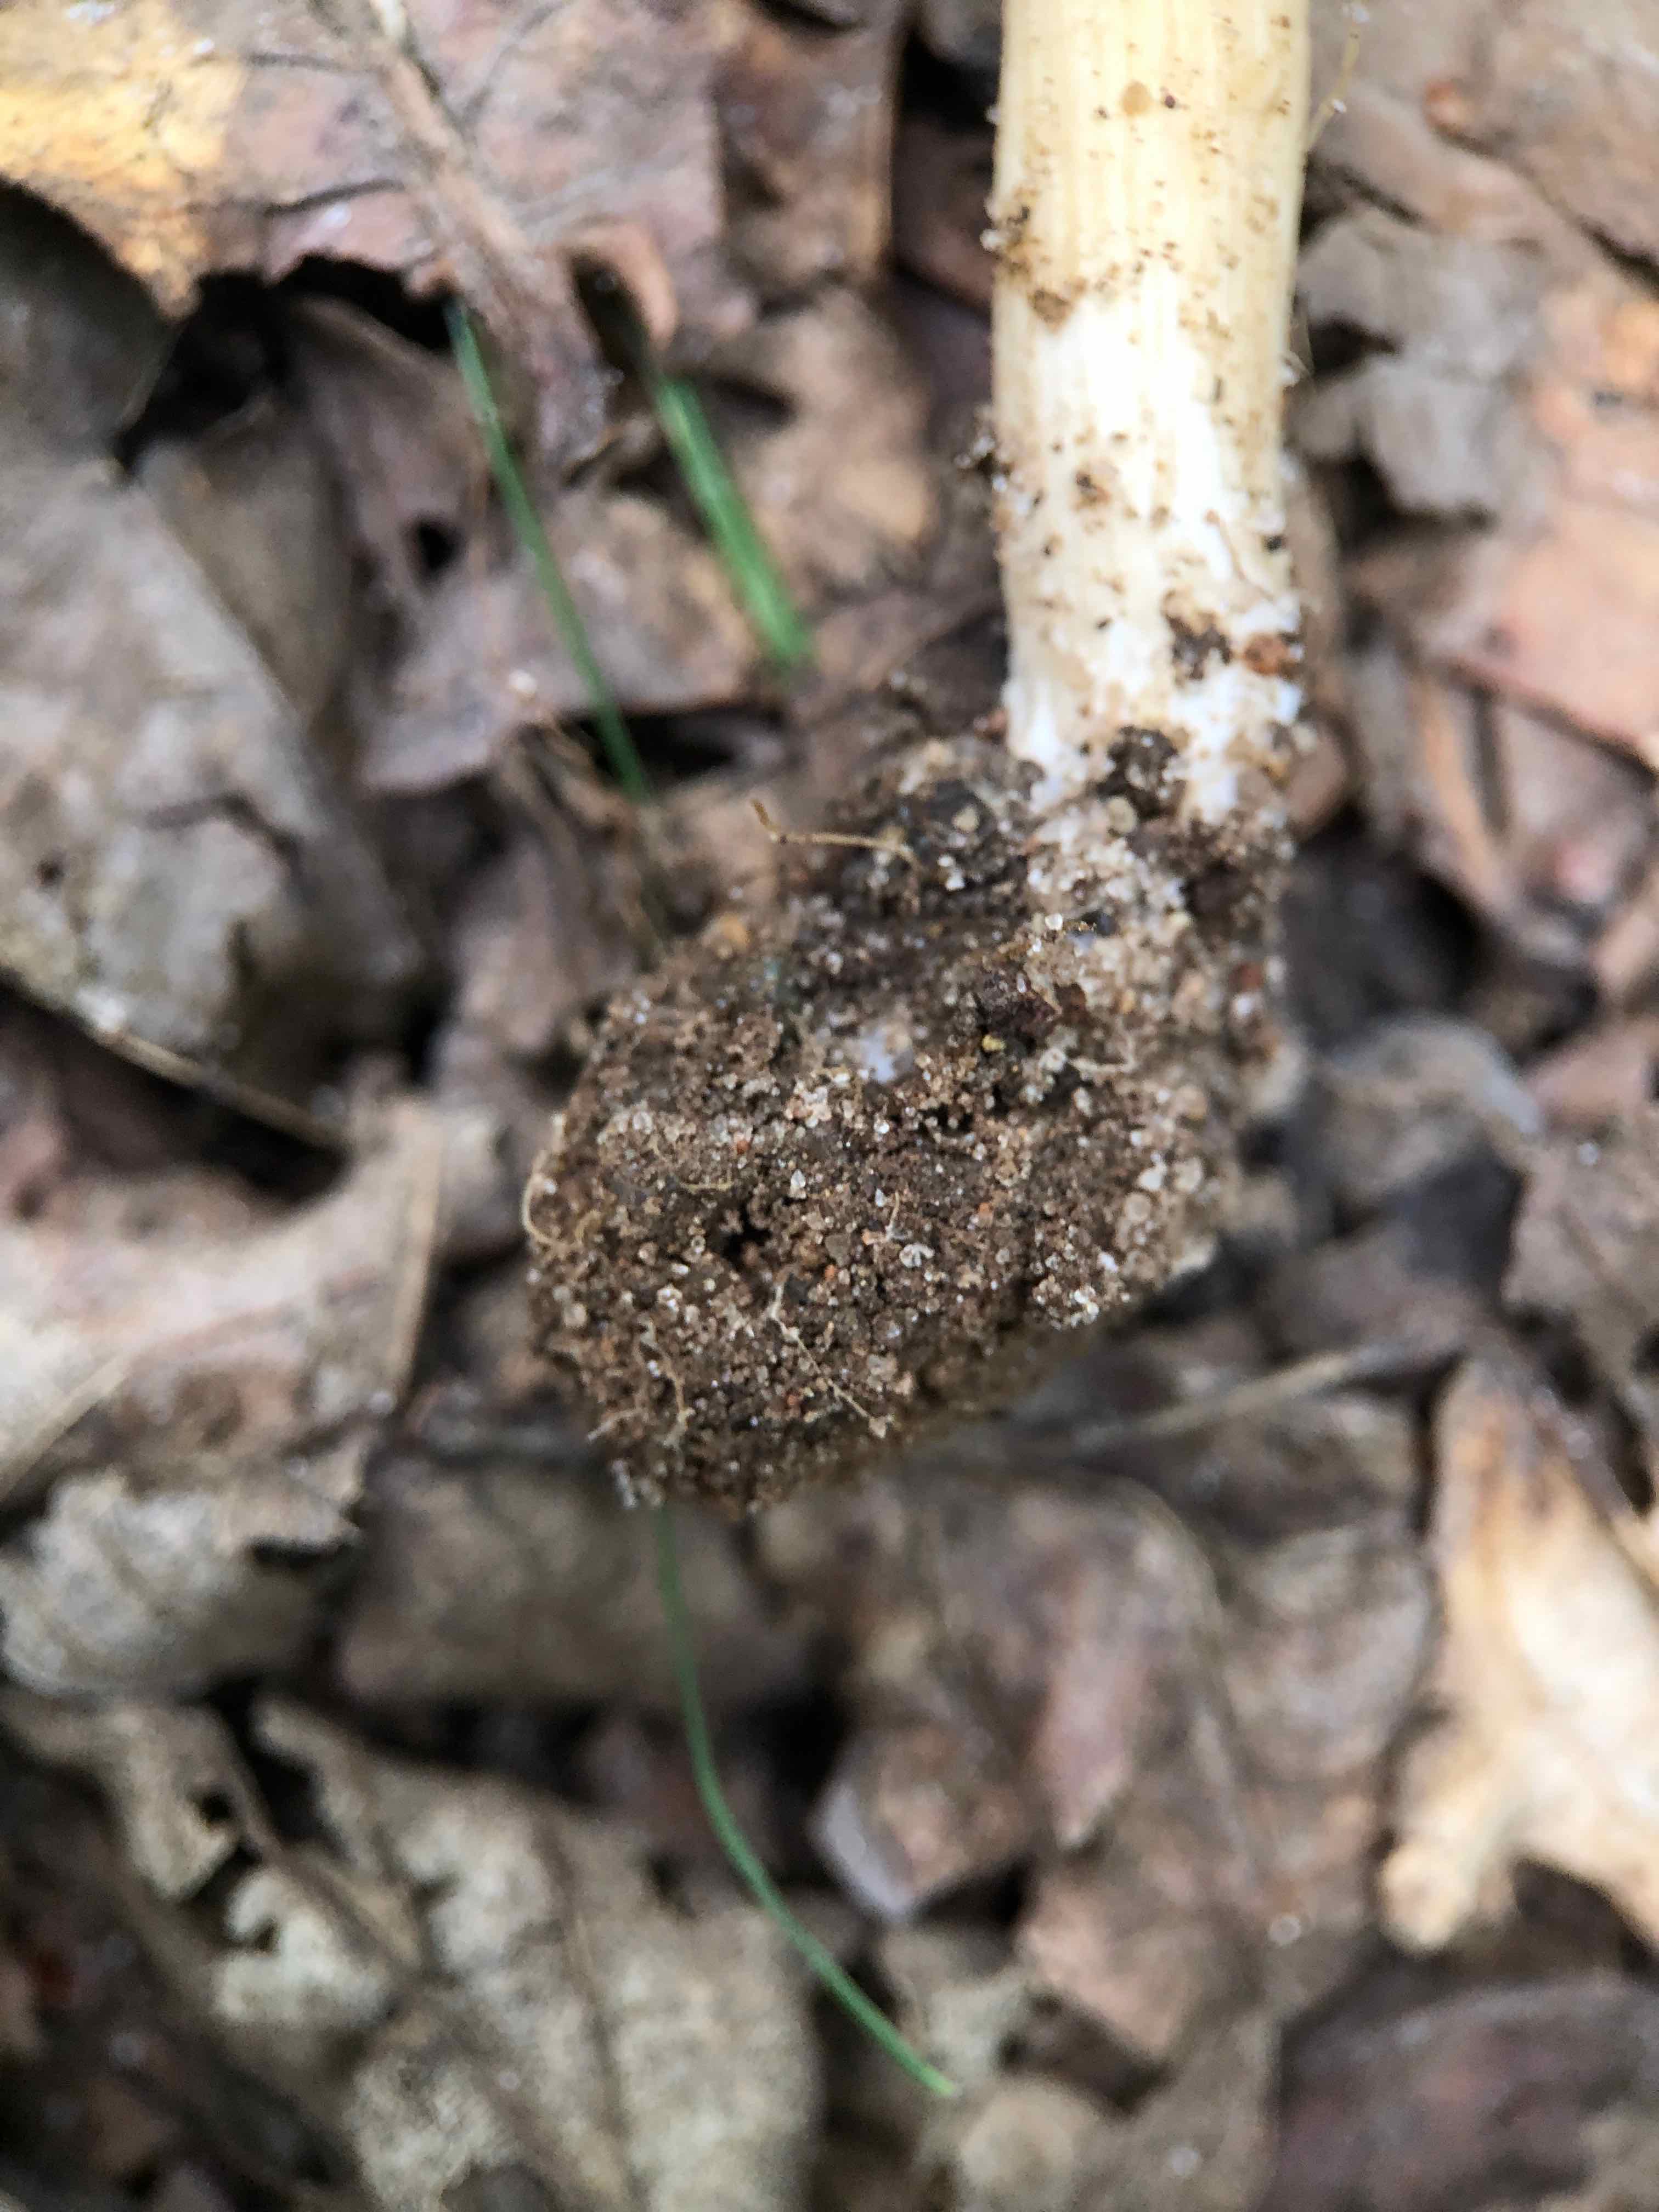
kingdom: Fungi
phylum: Basidiomycota
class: Agaricomycetes
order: Agaricales
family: Inocybaceae
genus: Inocybe
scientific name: Inocybe
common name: trævlhat
